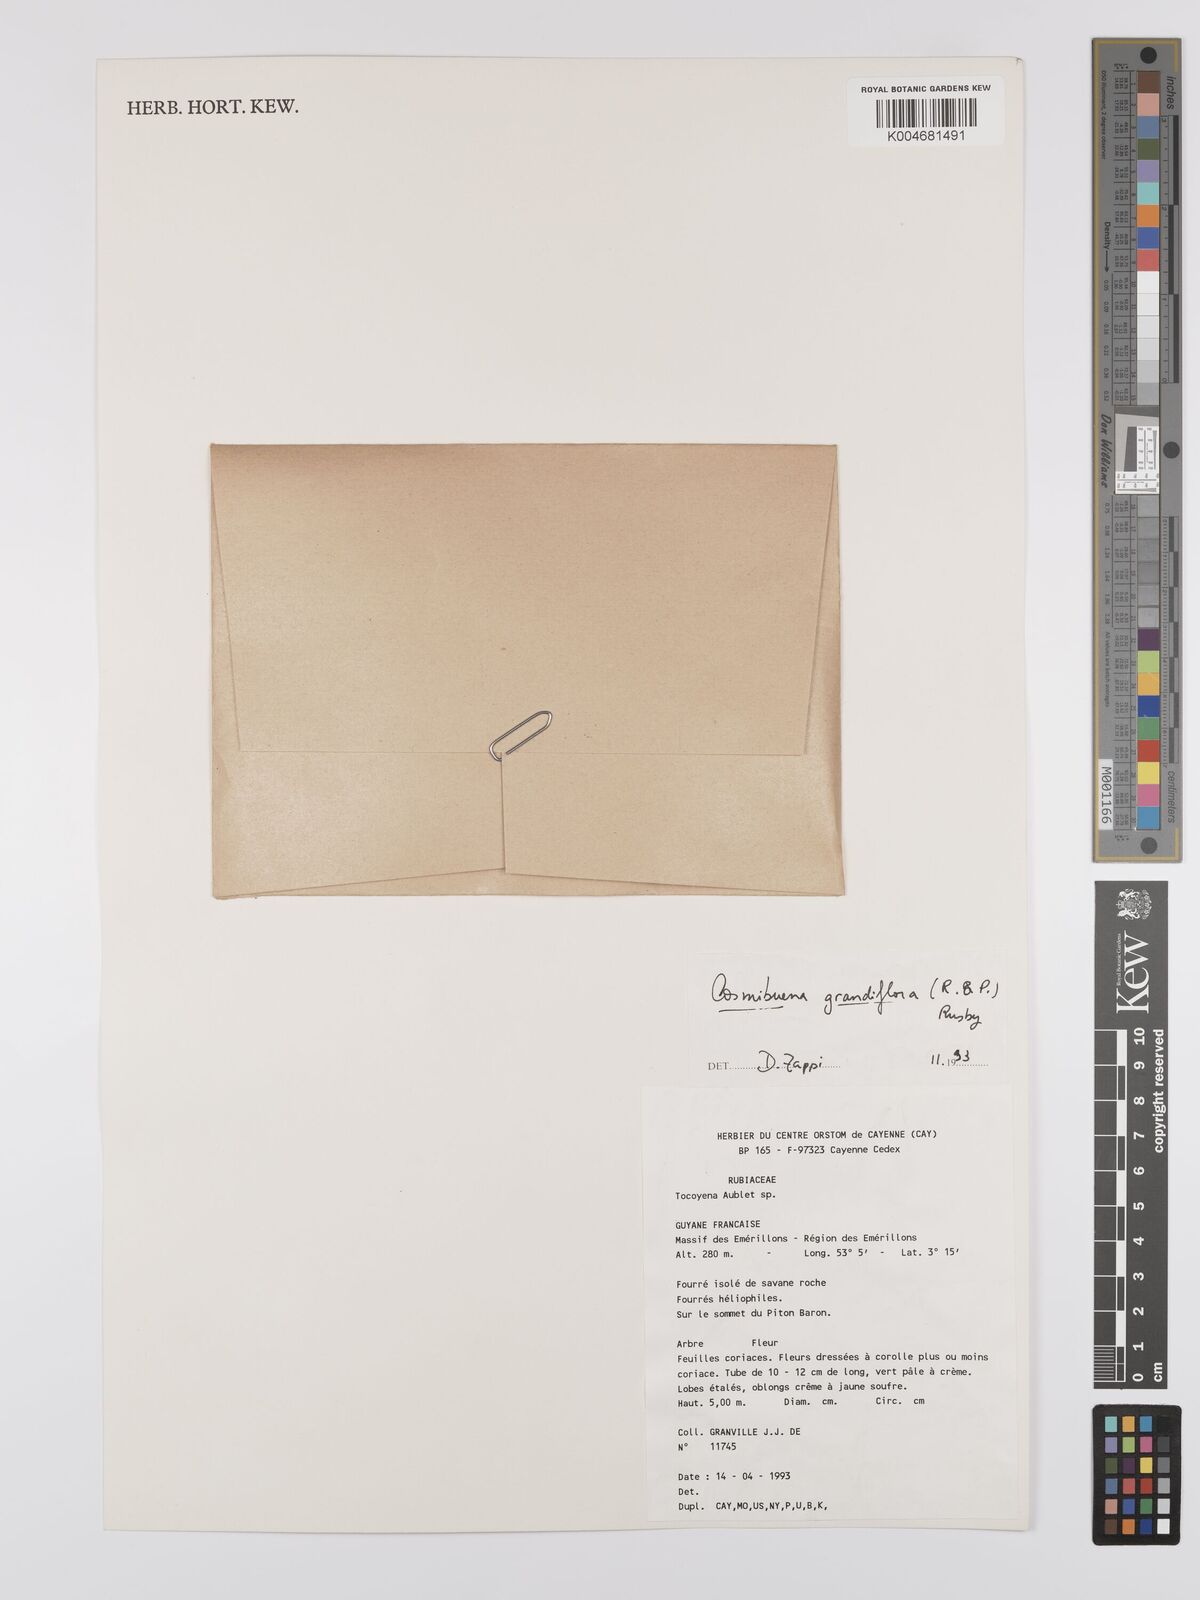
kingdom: Plantae
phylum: Tracheophyta
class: Magnoliopsida
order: Gentianales
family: Rubiaceae
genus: Cosmibuena
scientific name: Cosmibuena grandiflora
